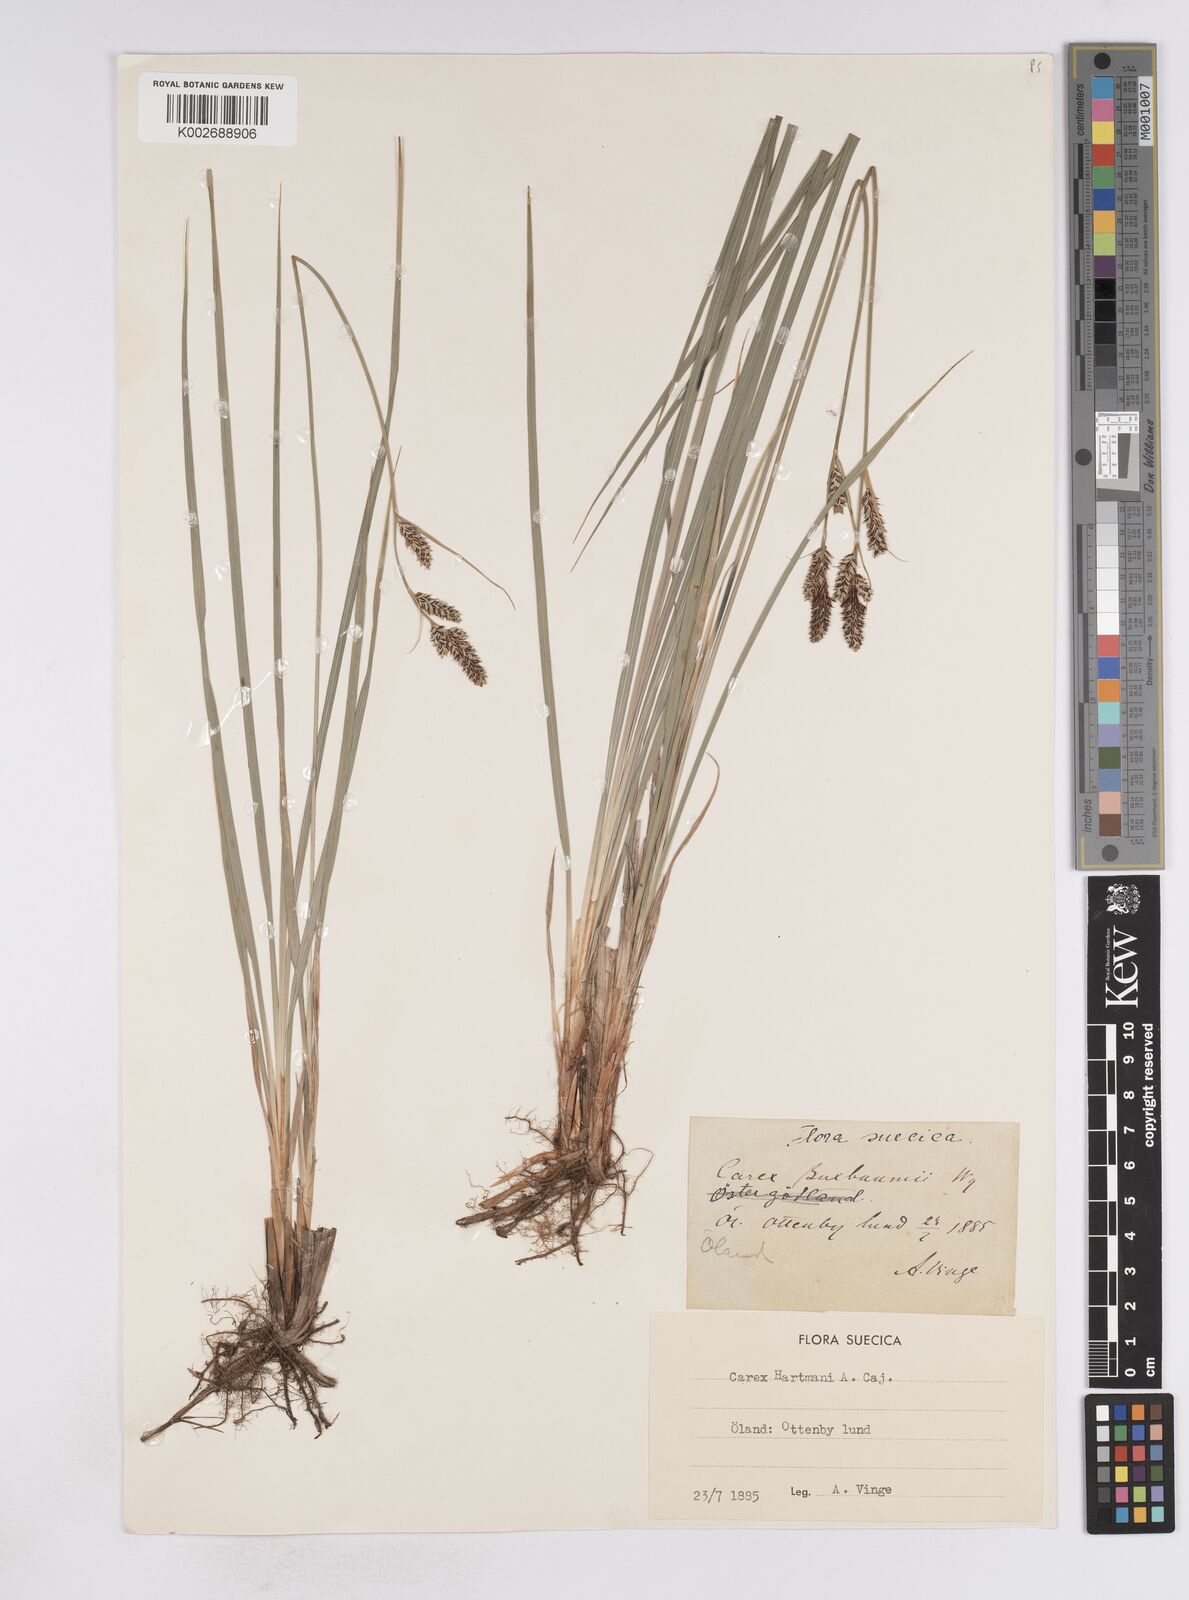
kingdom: Plantae
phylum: Tracheophyta
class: Liliopsida
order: Poales
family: Cyperaceae
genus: Carex
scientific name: Carex hartmaniorum
